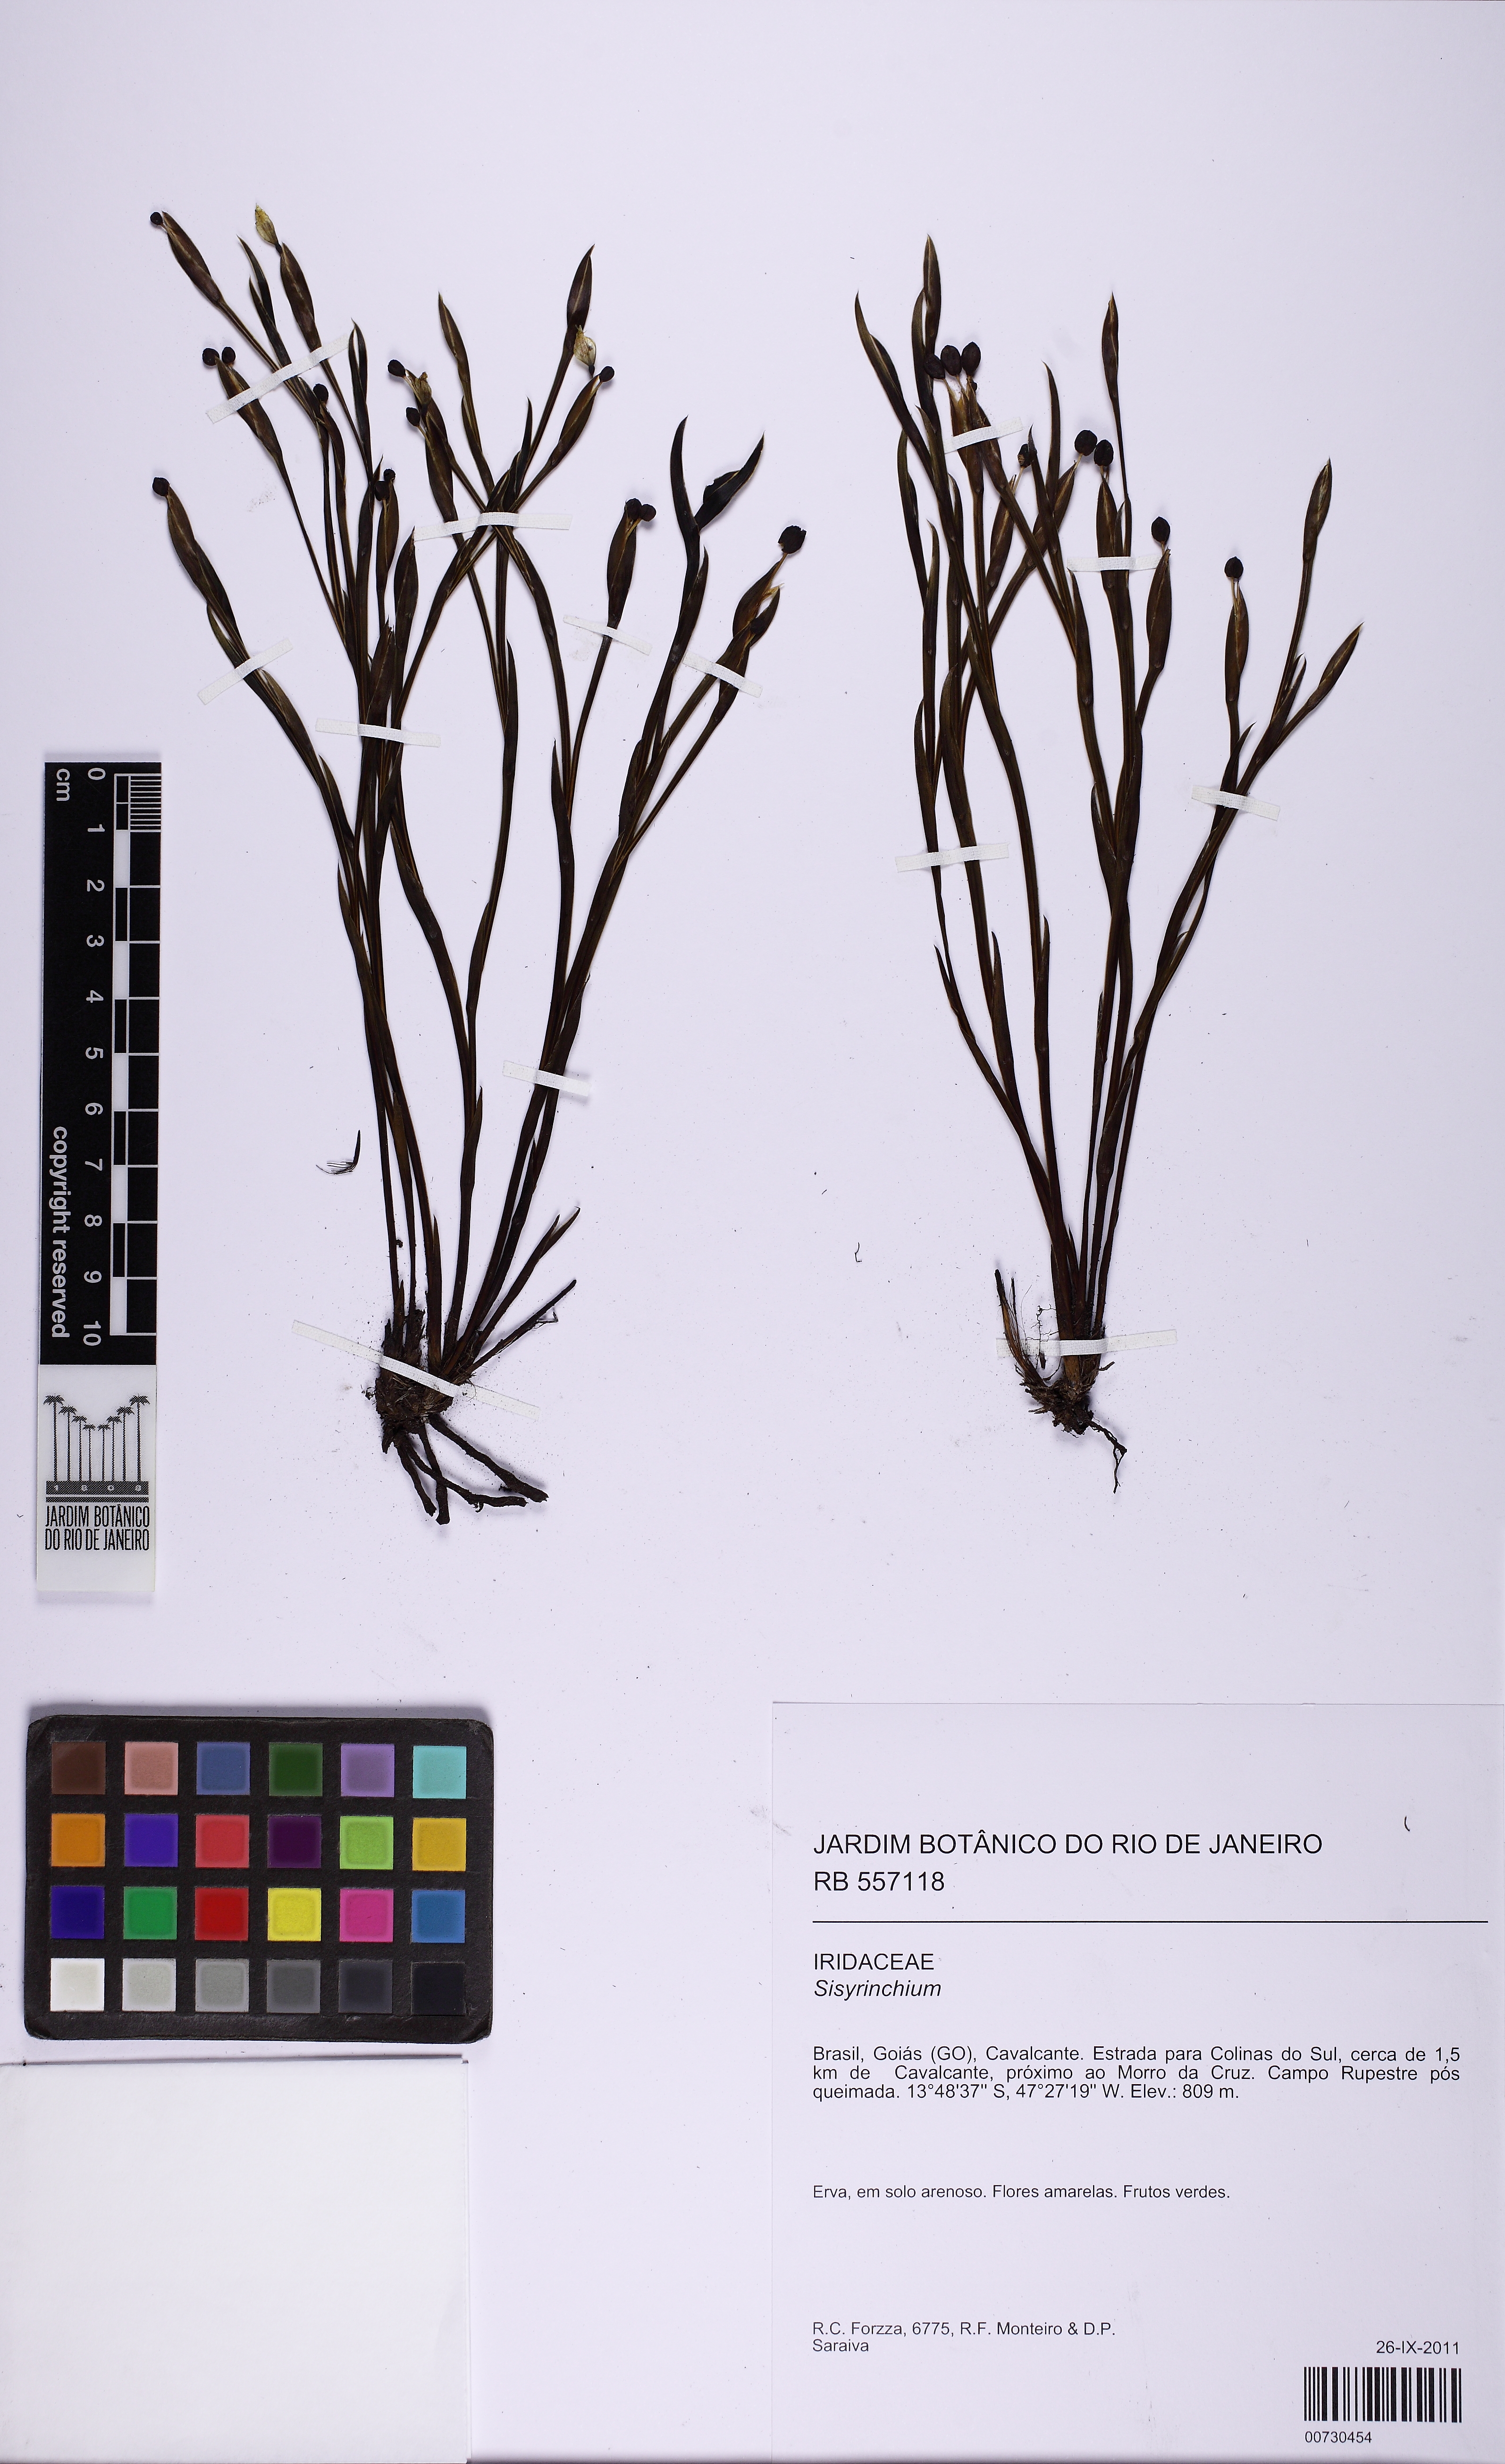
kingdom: Plantae
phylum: Tracheophyta
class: Liliopsida
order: Asparagales
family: Iridaceae
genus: Sisyrinchium
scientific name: Sisyrinchium
